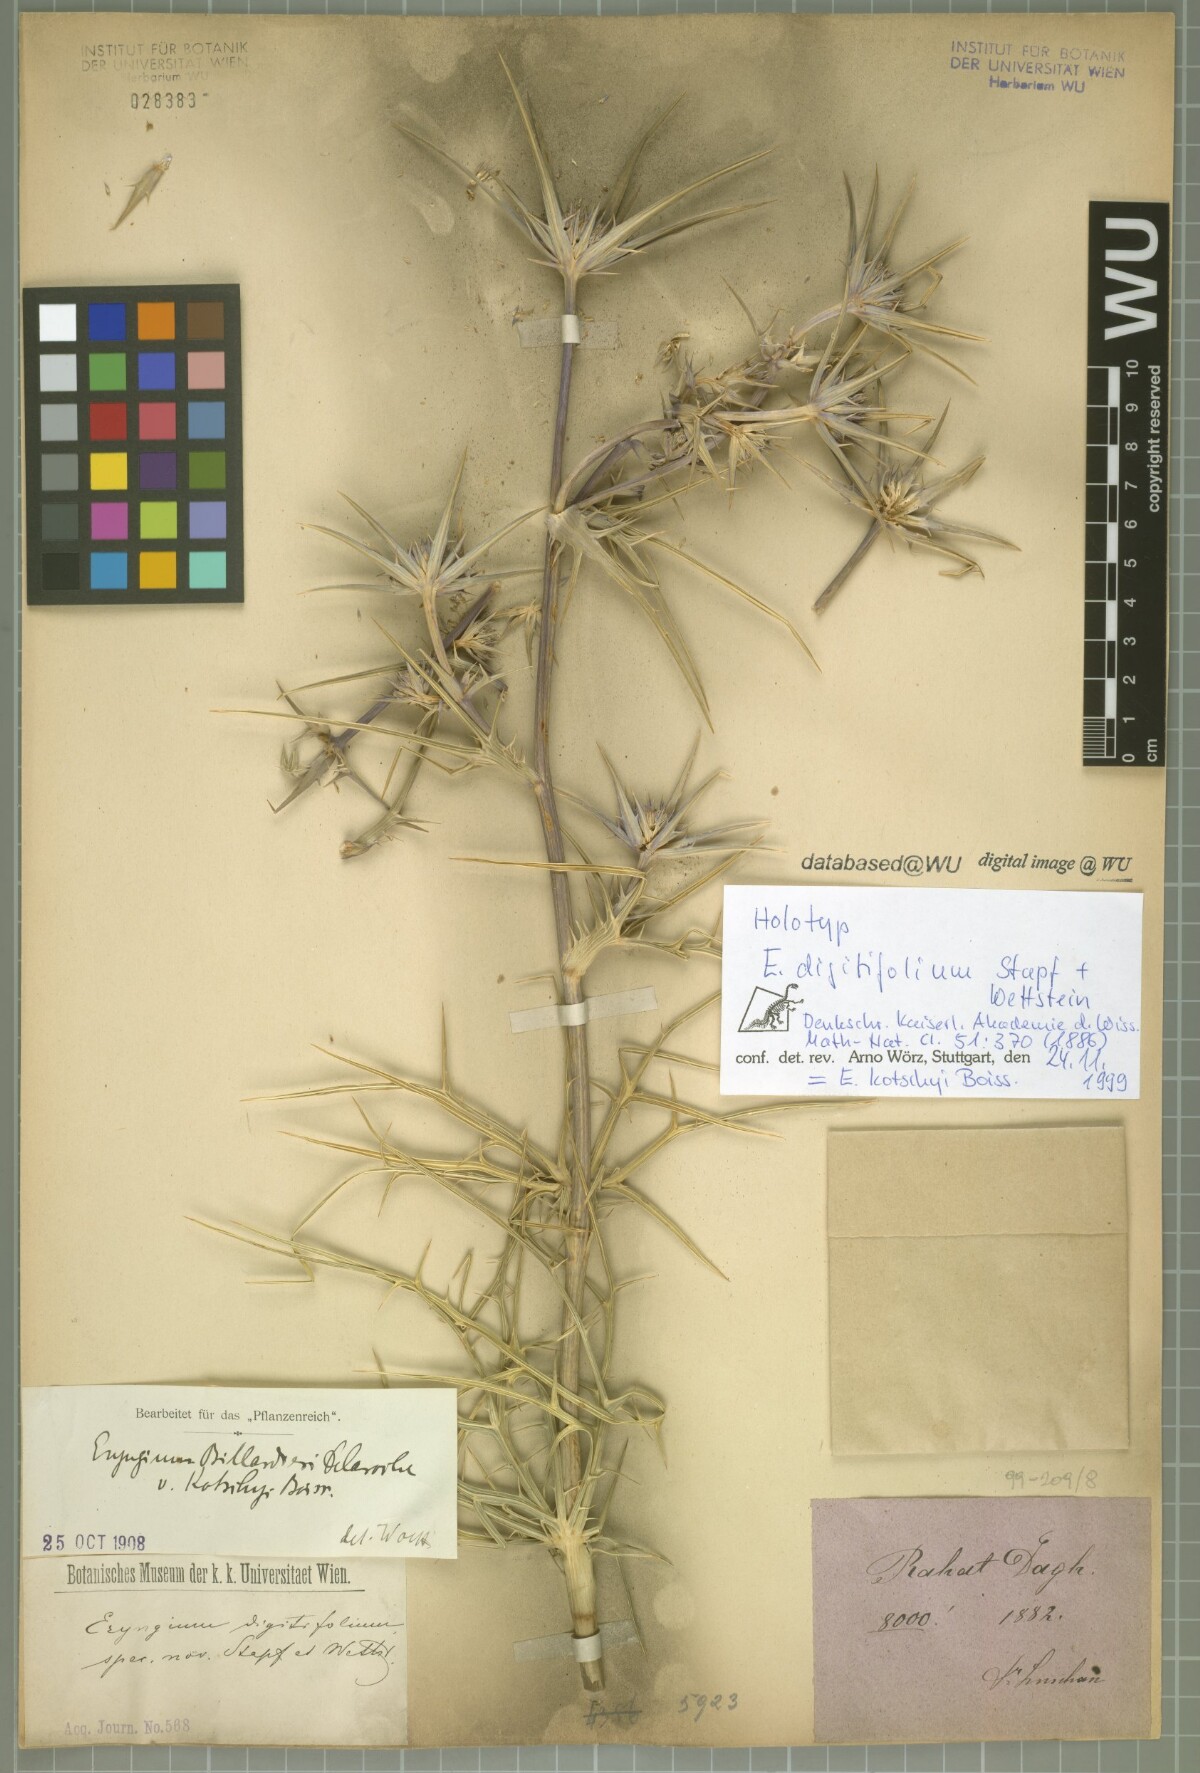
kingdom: Plantae
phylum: Tracheophyta
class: Magnoliopsida
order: Apiales
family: Apiaceae
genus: Eryngium
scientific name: Eryngium kotschyi
